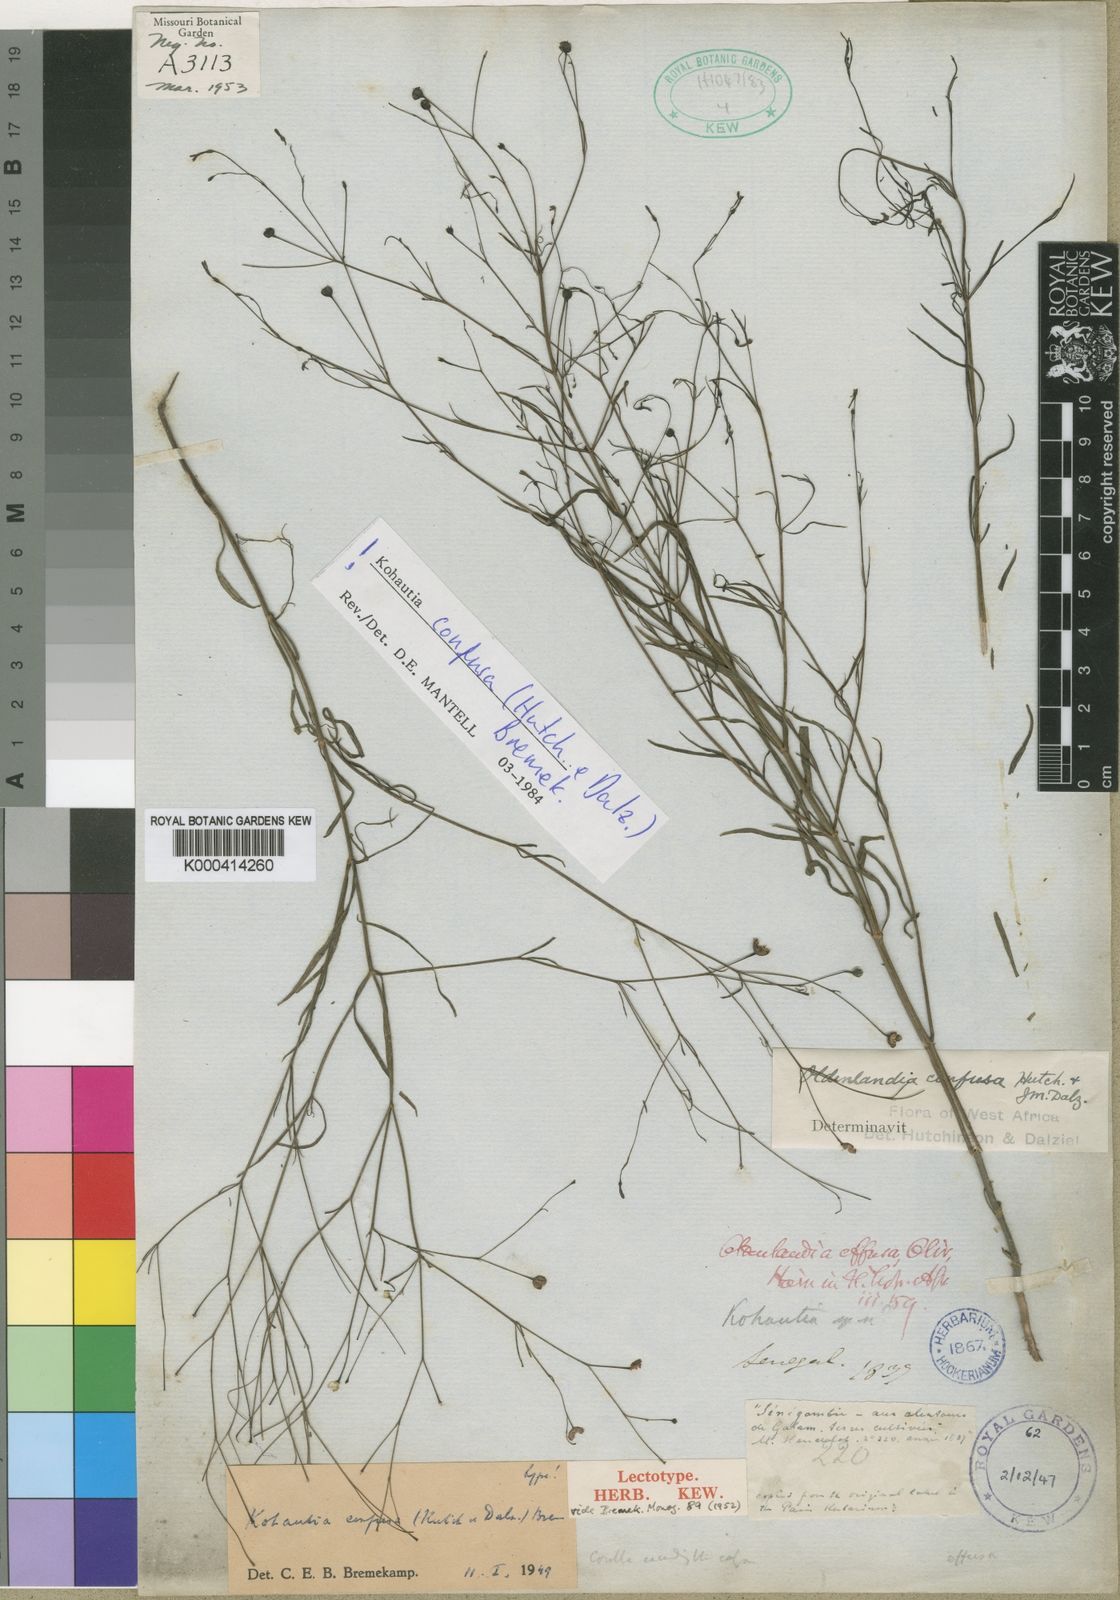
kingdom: Plantae
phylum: Tracheophyta
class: Magnoliopsida
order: Gentianales
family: Rubiaceae
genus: Kohautia
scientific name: Kohautia confusa
